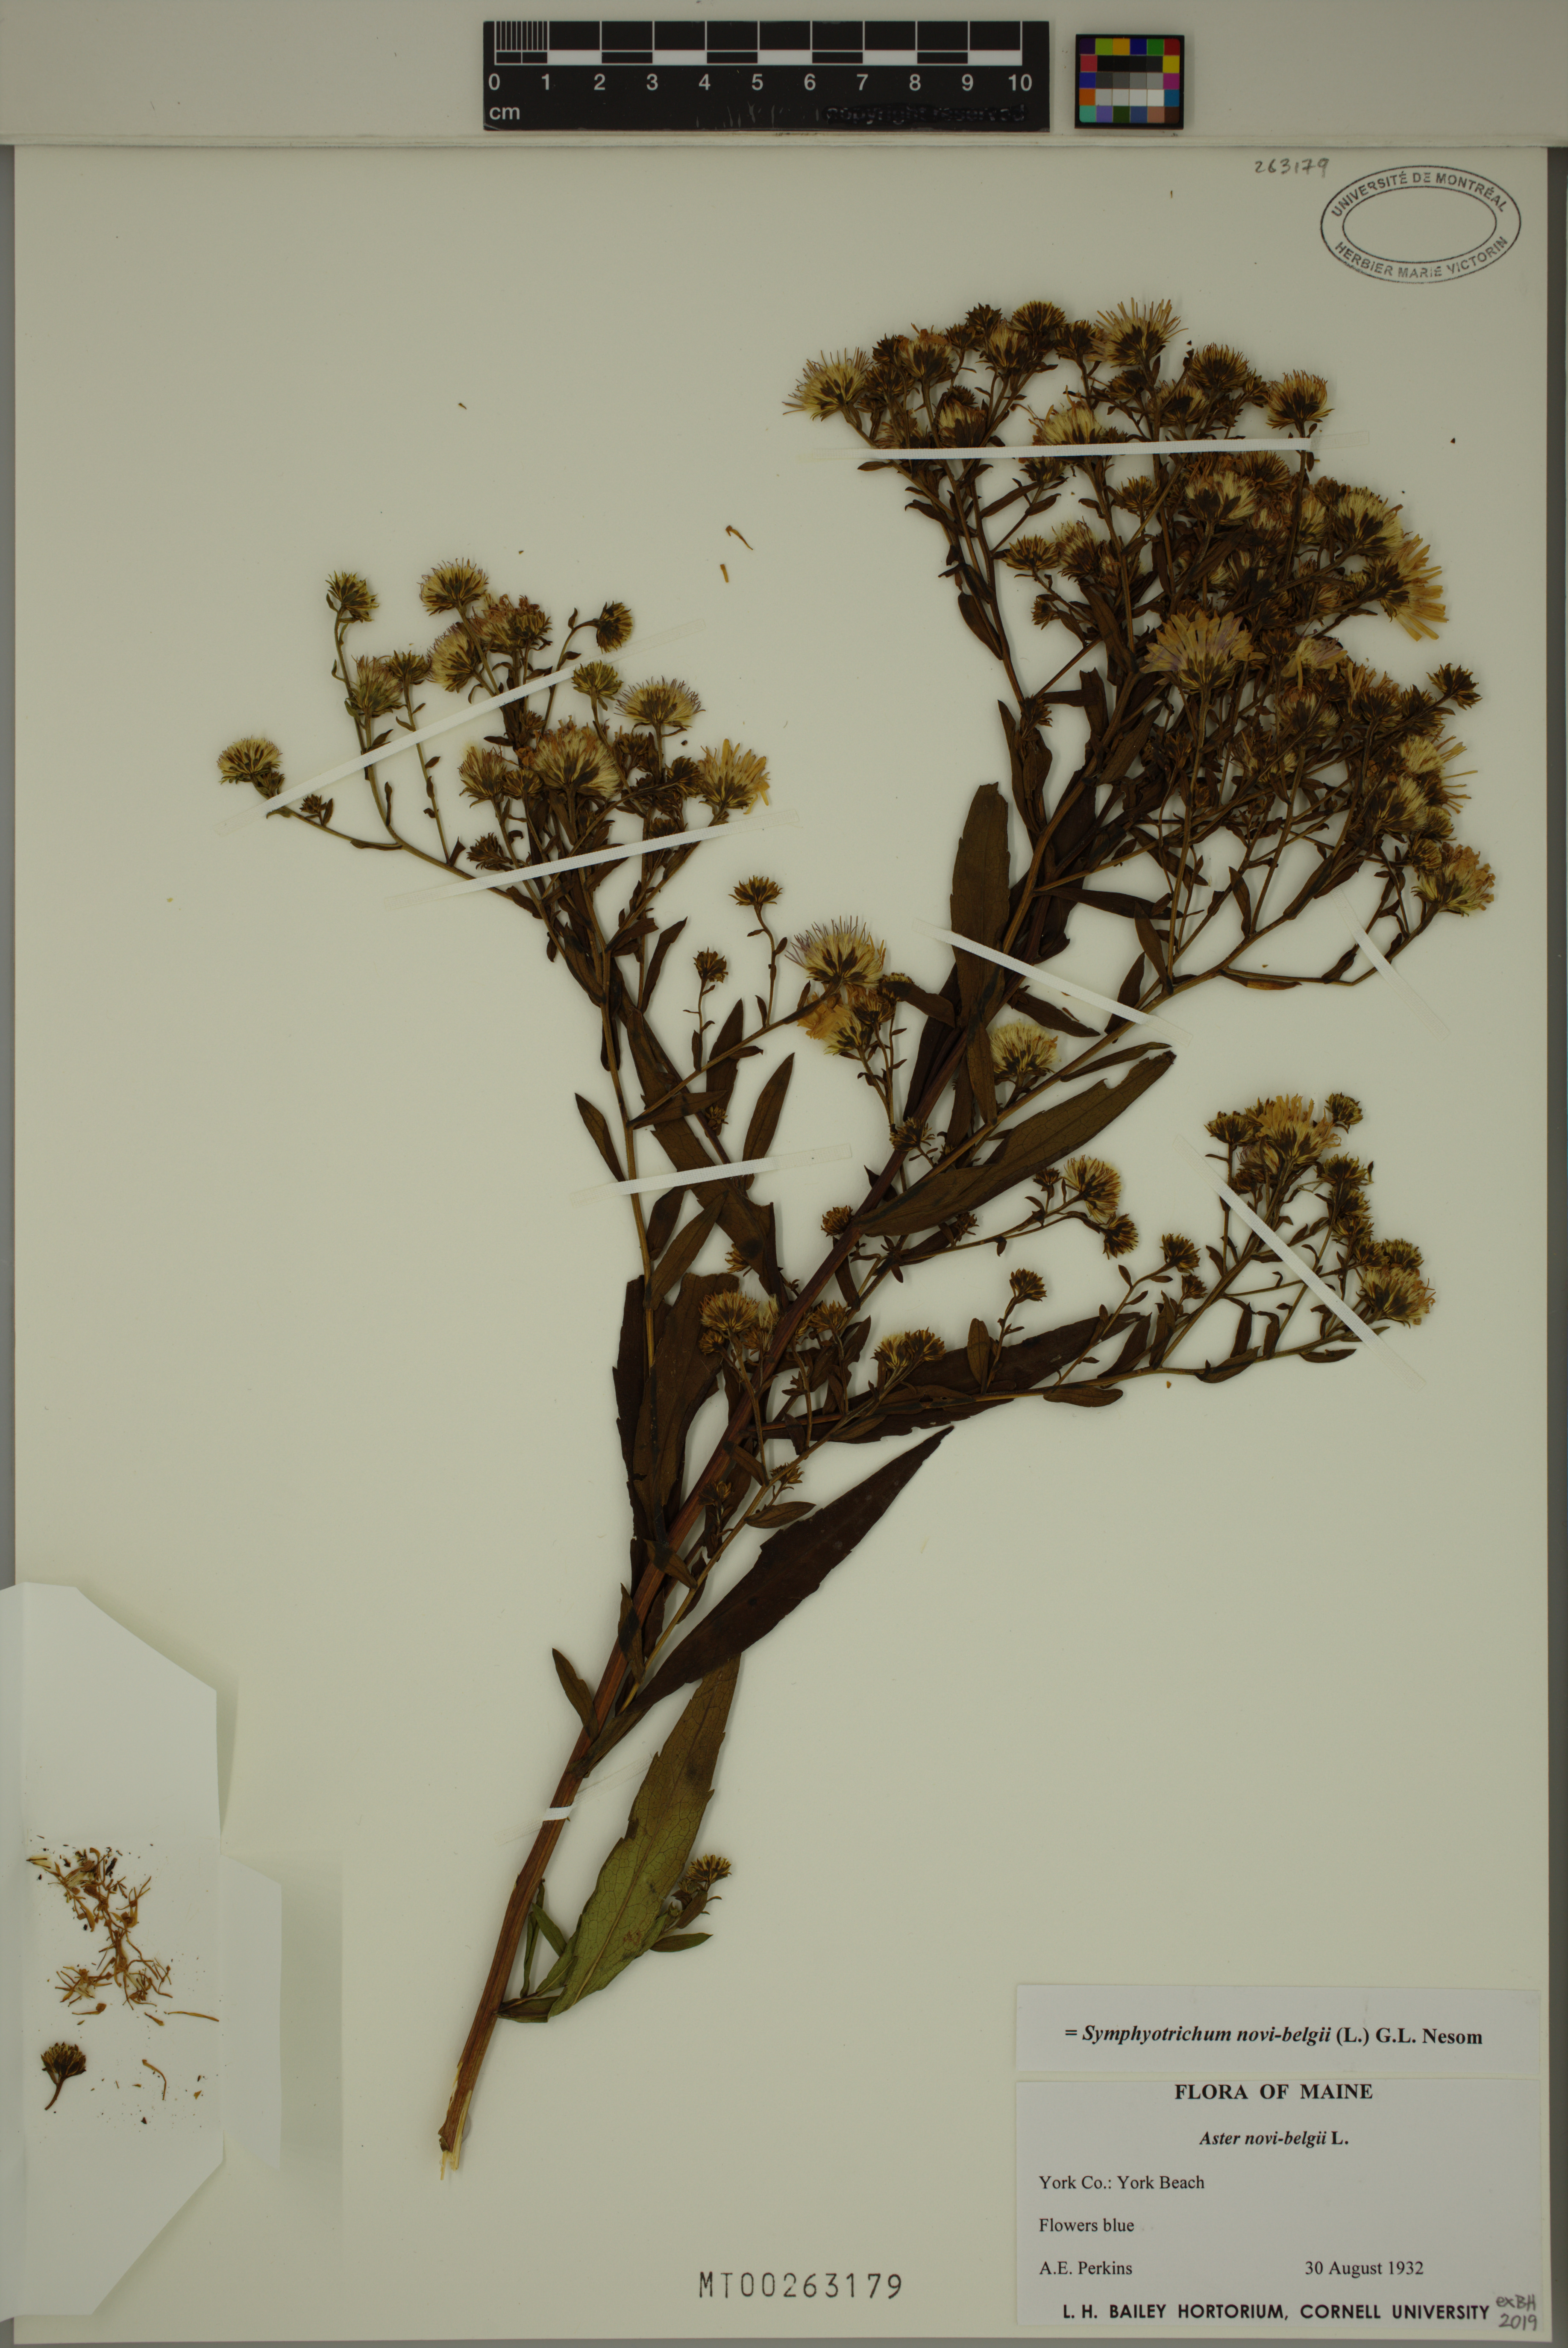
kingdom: Plantae
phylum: Tracheophyta
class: Magnoliopsida
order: Asterales
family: Asteraceae
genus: Symphyotrichum
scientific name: Symphyotrichum novi-belgii
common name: Michaelmas daisy
